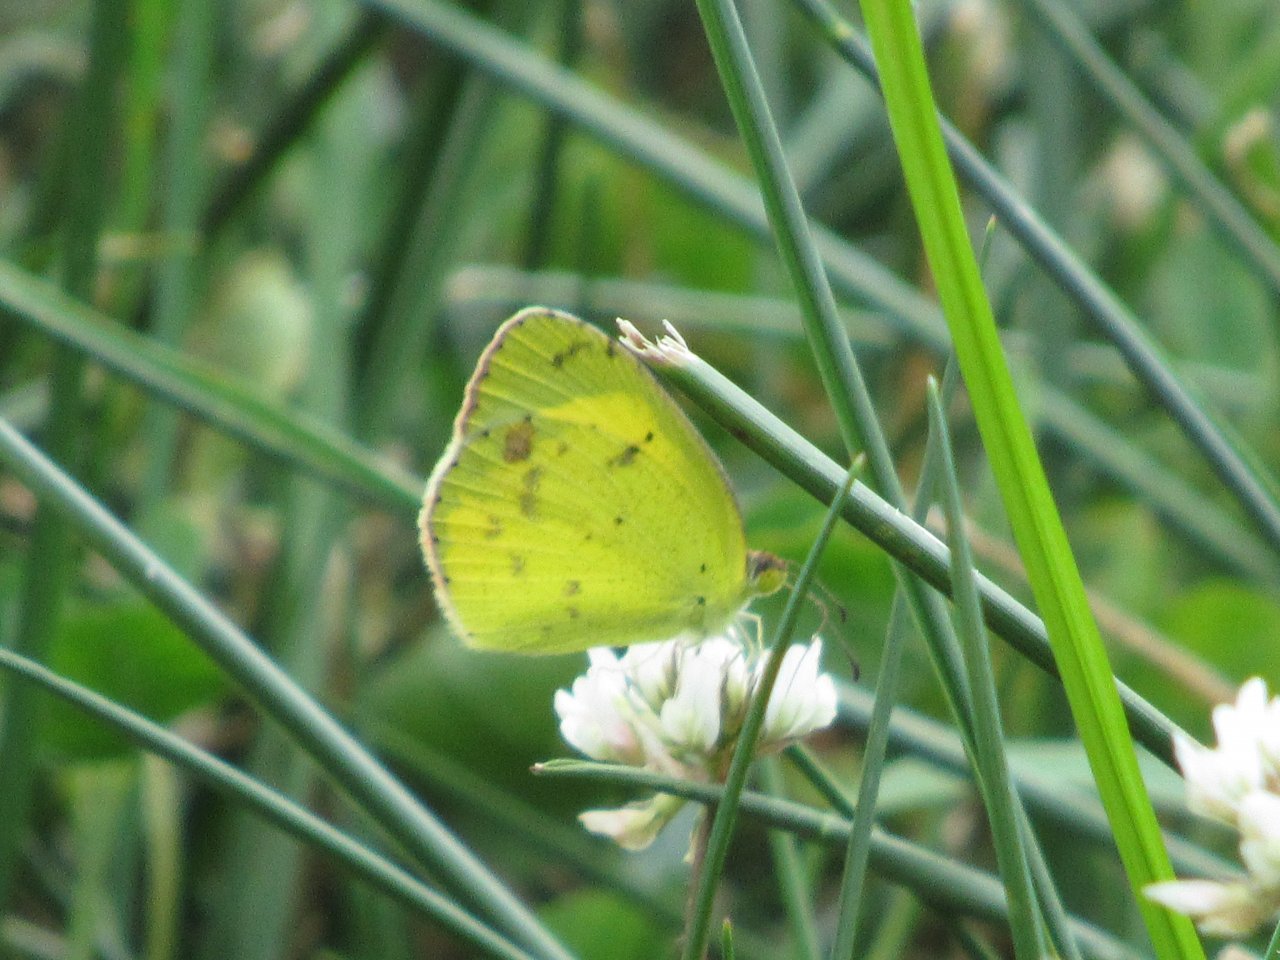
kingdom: Animalia
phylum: Arthropoda
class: Insecta
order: Lepidoptera
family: Pieridae
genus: Pyrisitia
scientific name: Pyrisitia lisa
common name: Little Yellow
